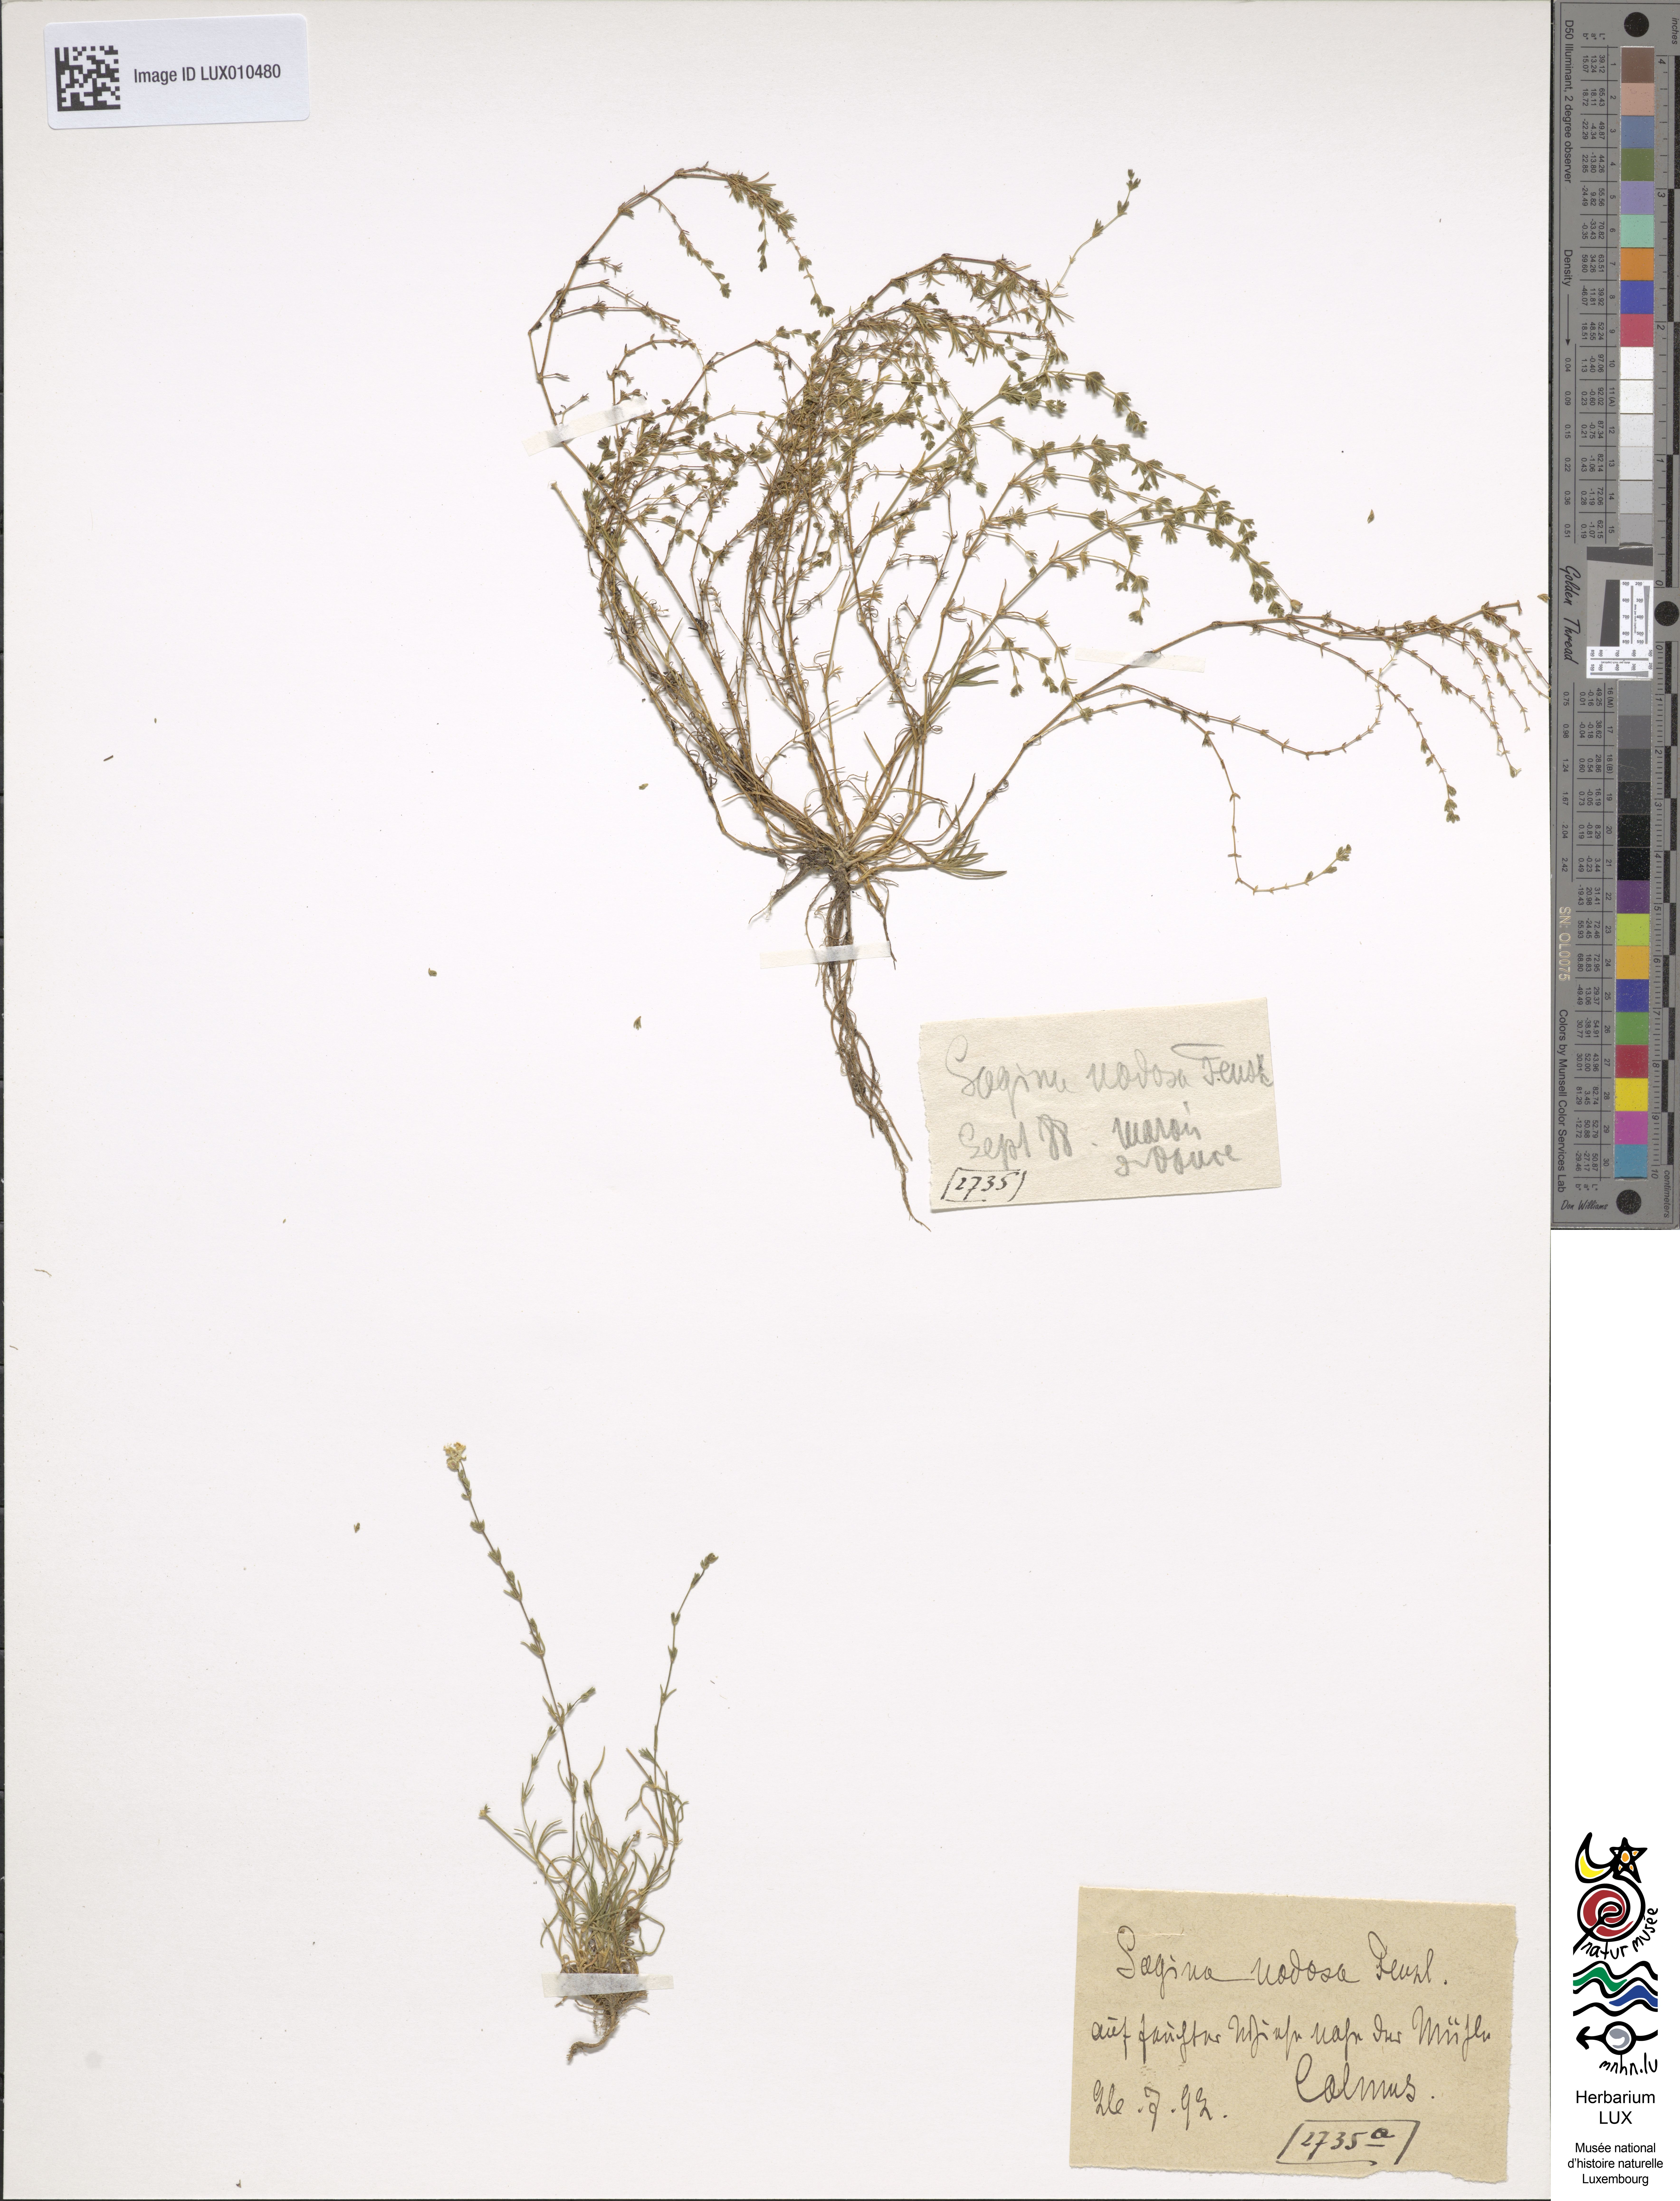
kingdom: Plantae
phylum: Tracheophyta
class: Magnoliopsida
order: Caryophyllales
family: Caryophyllaceae
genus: Sagina
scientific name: Sagina nodosa
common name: Knotted pearlwort
